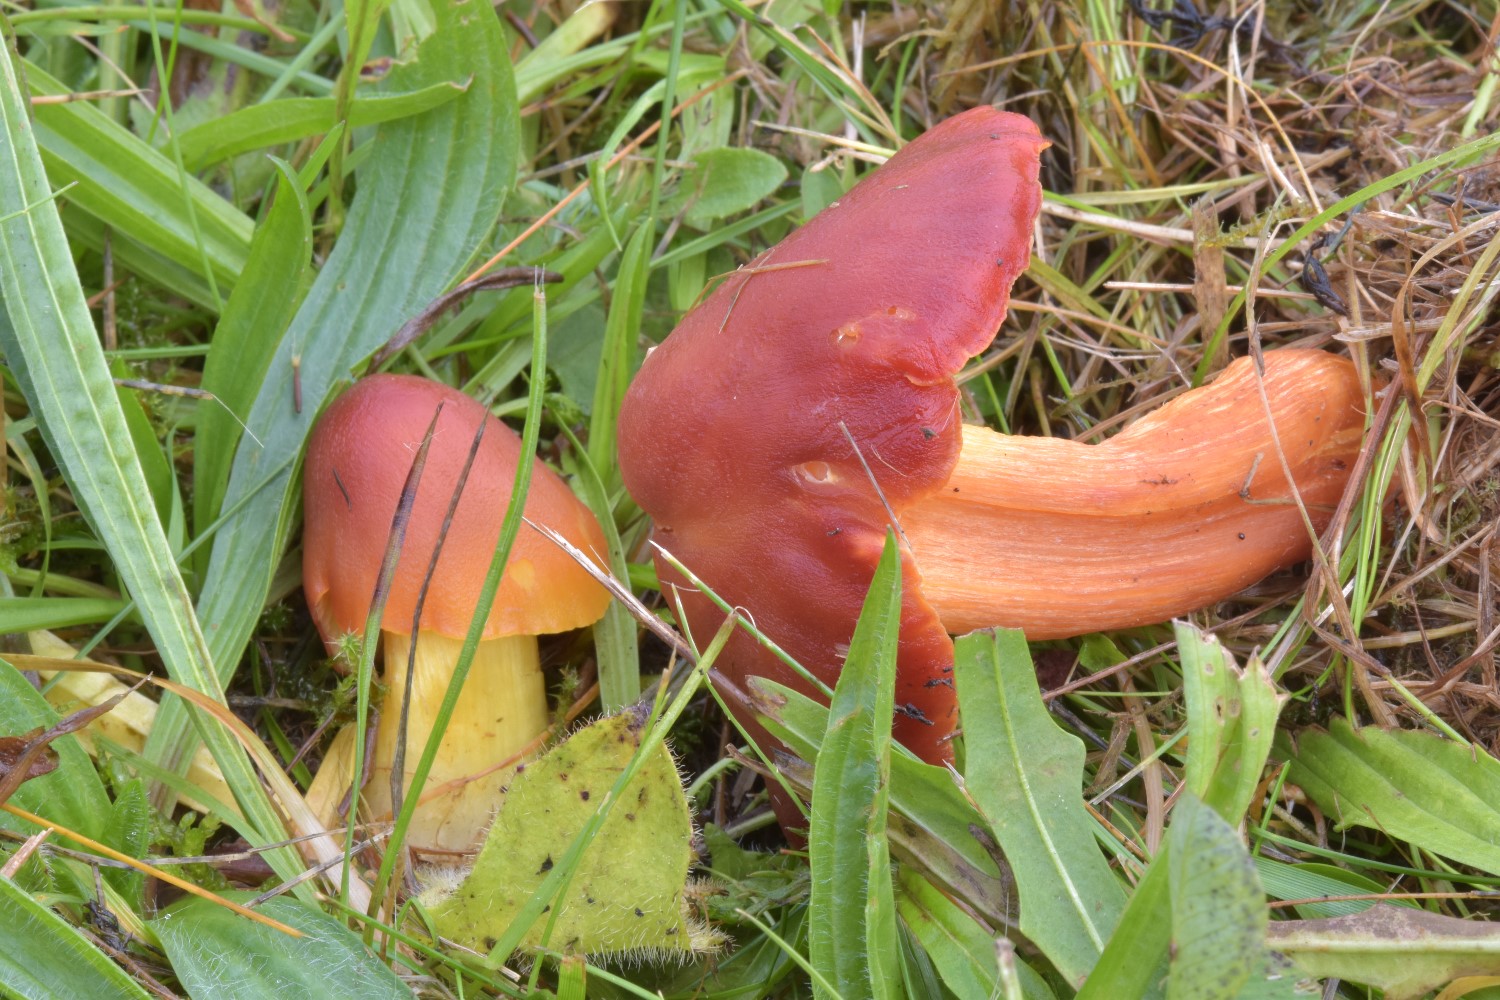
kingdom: Fungi
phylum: Basidiomycota
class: Agaricomycetes
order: Agaricales
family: Hygrophoraceae
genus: Hygrocybe
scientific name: Hygrocybe punicea
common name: skarlagen-vokshat
